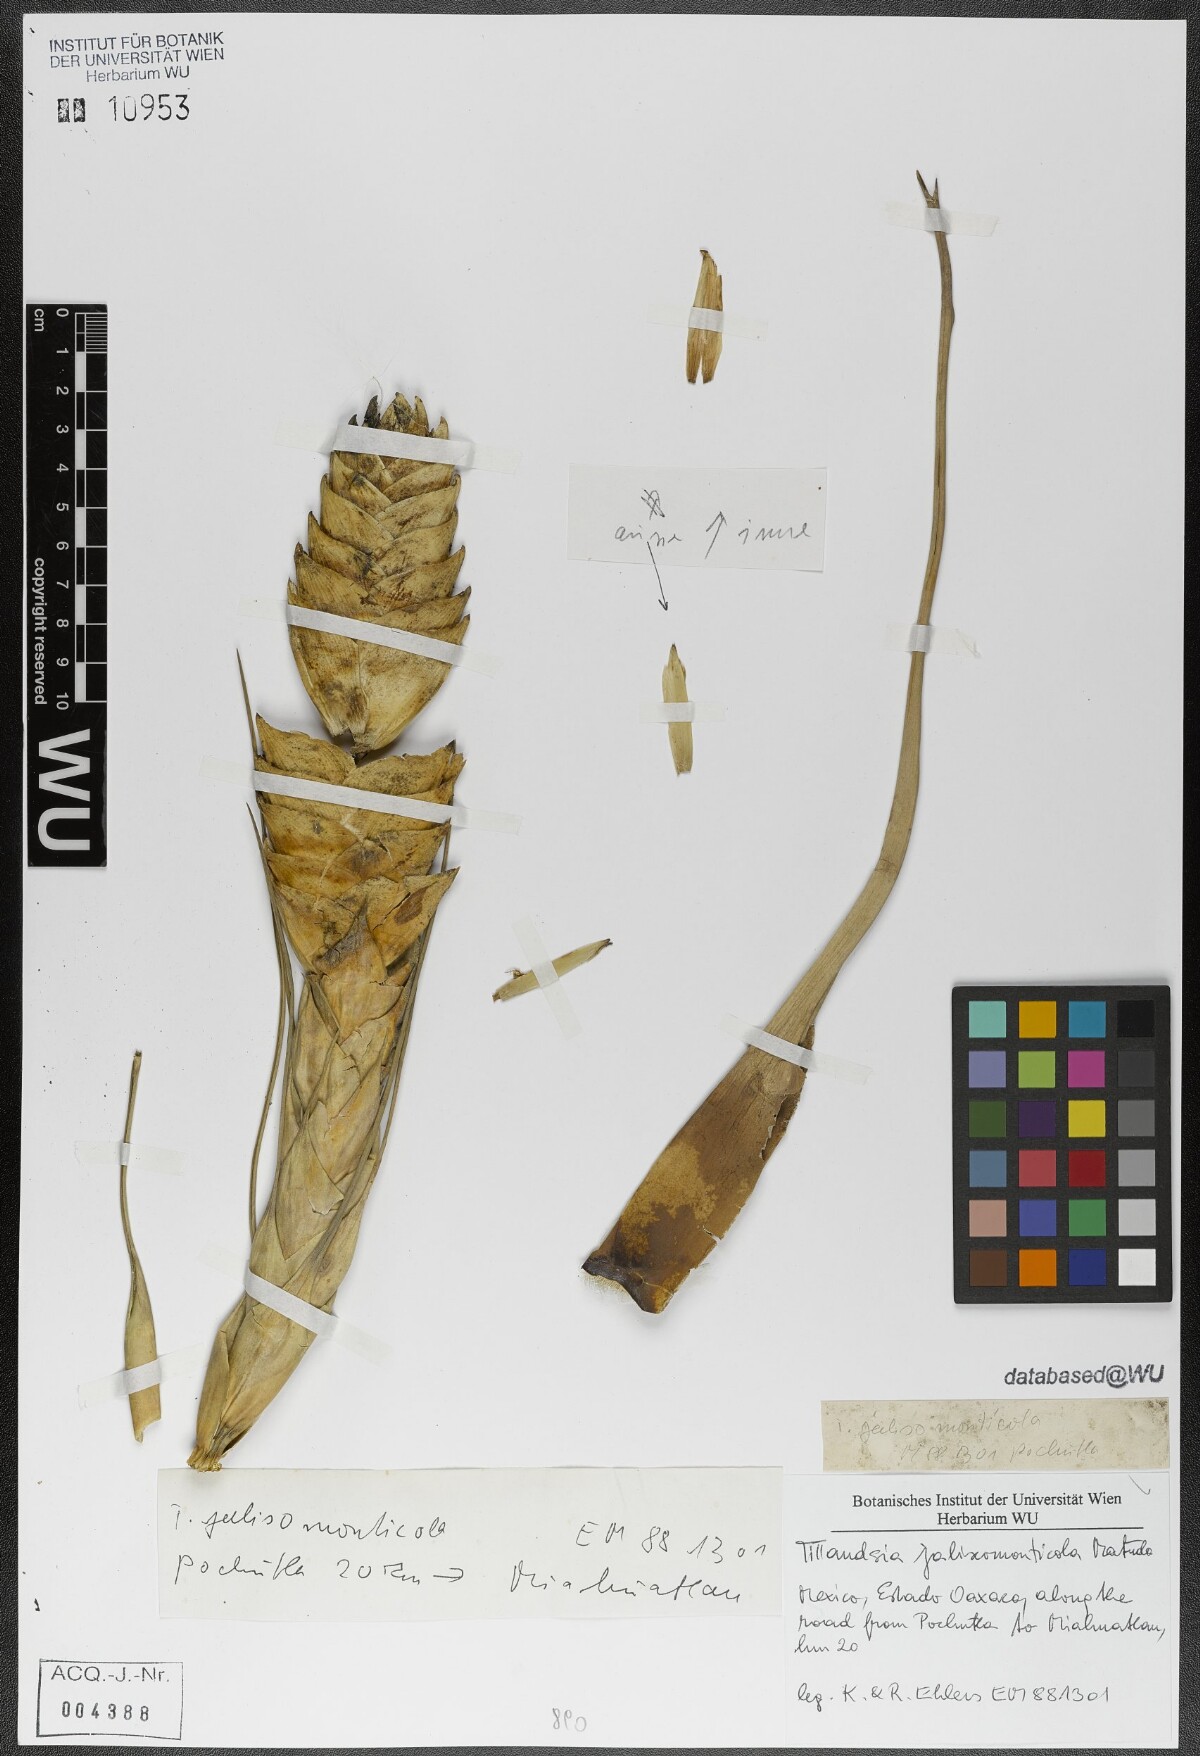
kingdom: Plantae
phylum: Tracheophyta
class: Liliopsida
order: Poales
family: Bromeliaceae
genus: Tillandsia
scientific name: Tillandsia compressa
